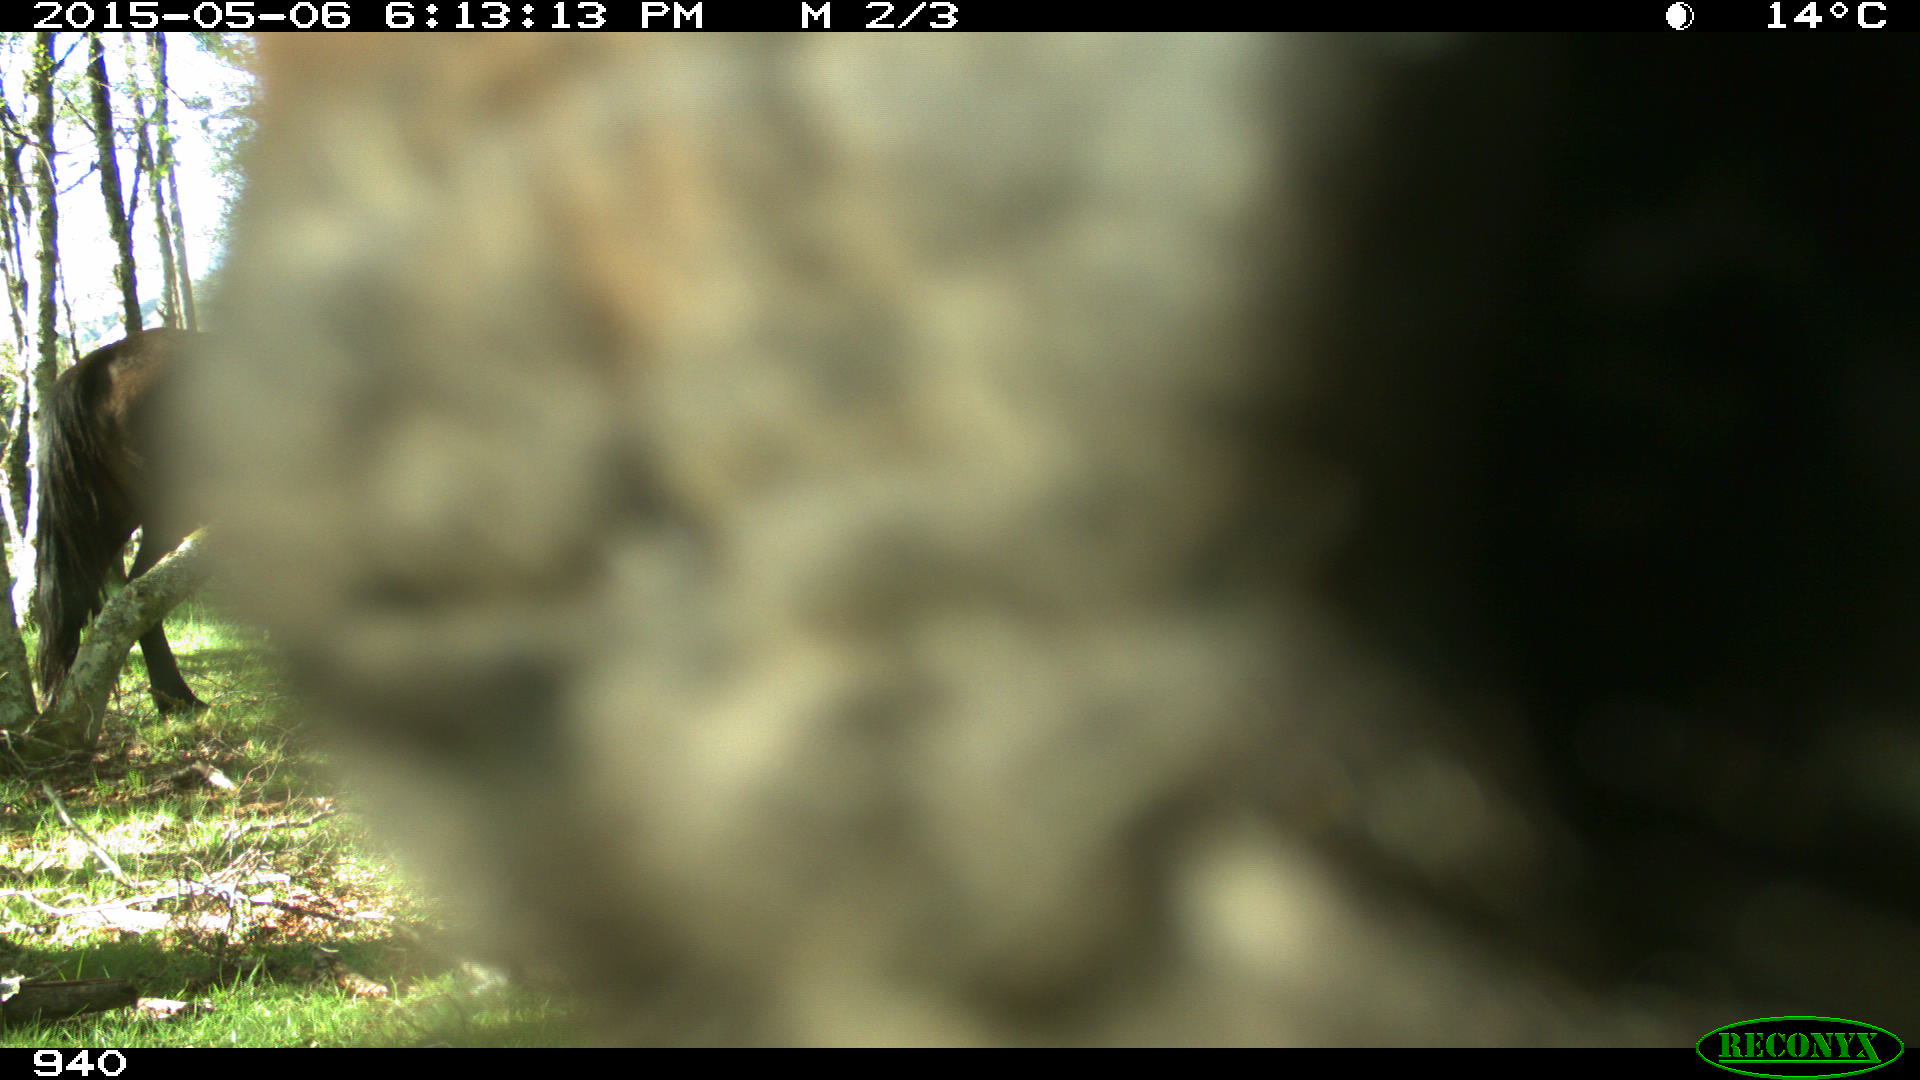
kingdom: Animalia
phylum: Chordata
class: Mammalia
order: Perissodactyla
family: Equidae
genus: Equus
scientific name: Equus caballus
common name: Horse
